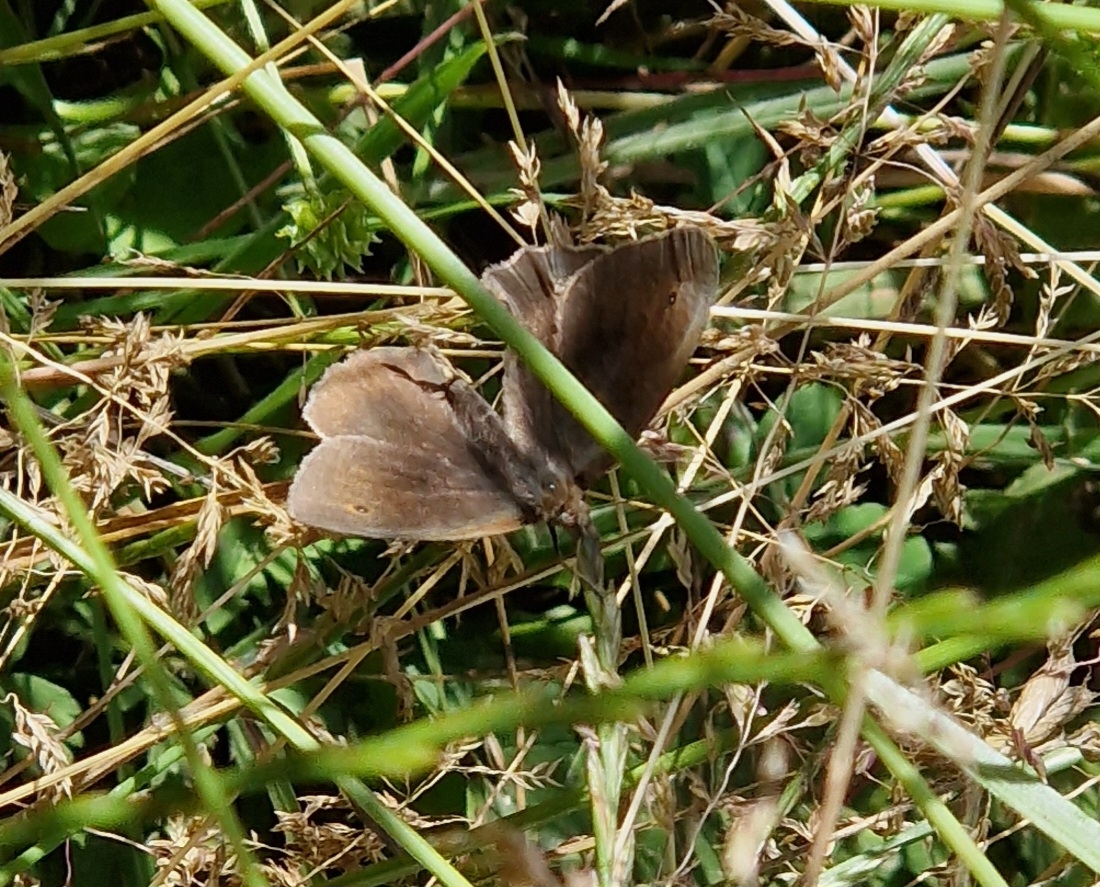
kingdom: Animalia
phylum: Arthropoda
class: Insecta
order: Lepidoptera
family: Nymphalidae
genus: Maniola
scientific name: Maniola jurtina
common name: Græsrandøje
